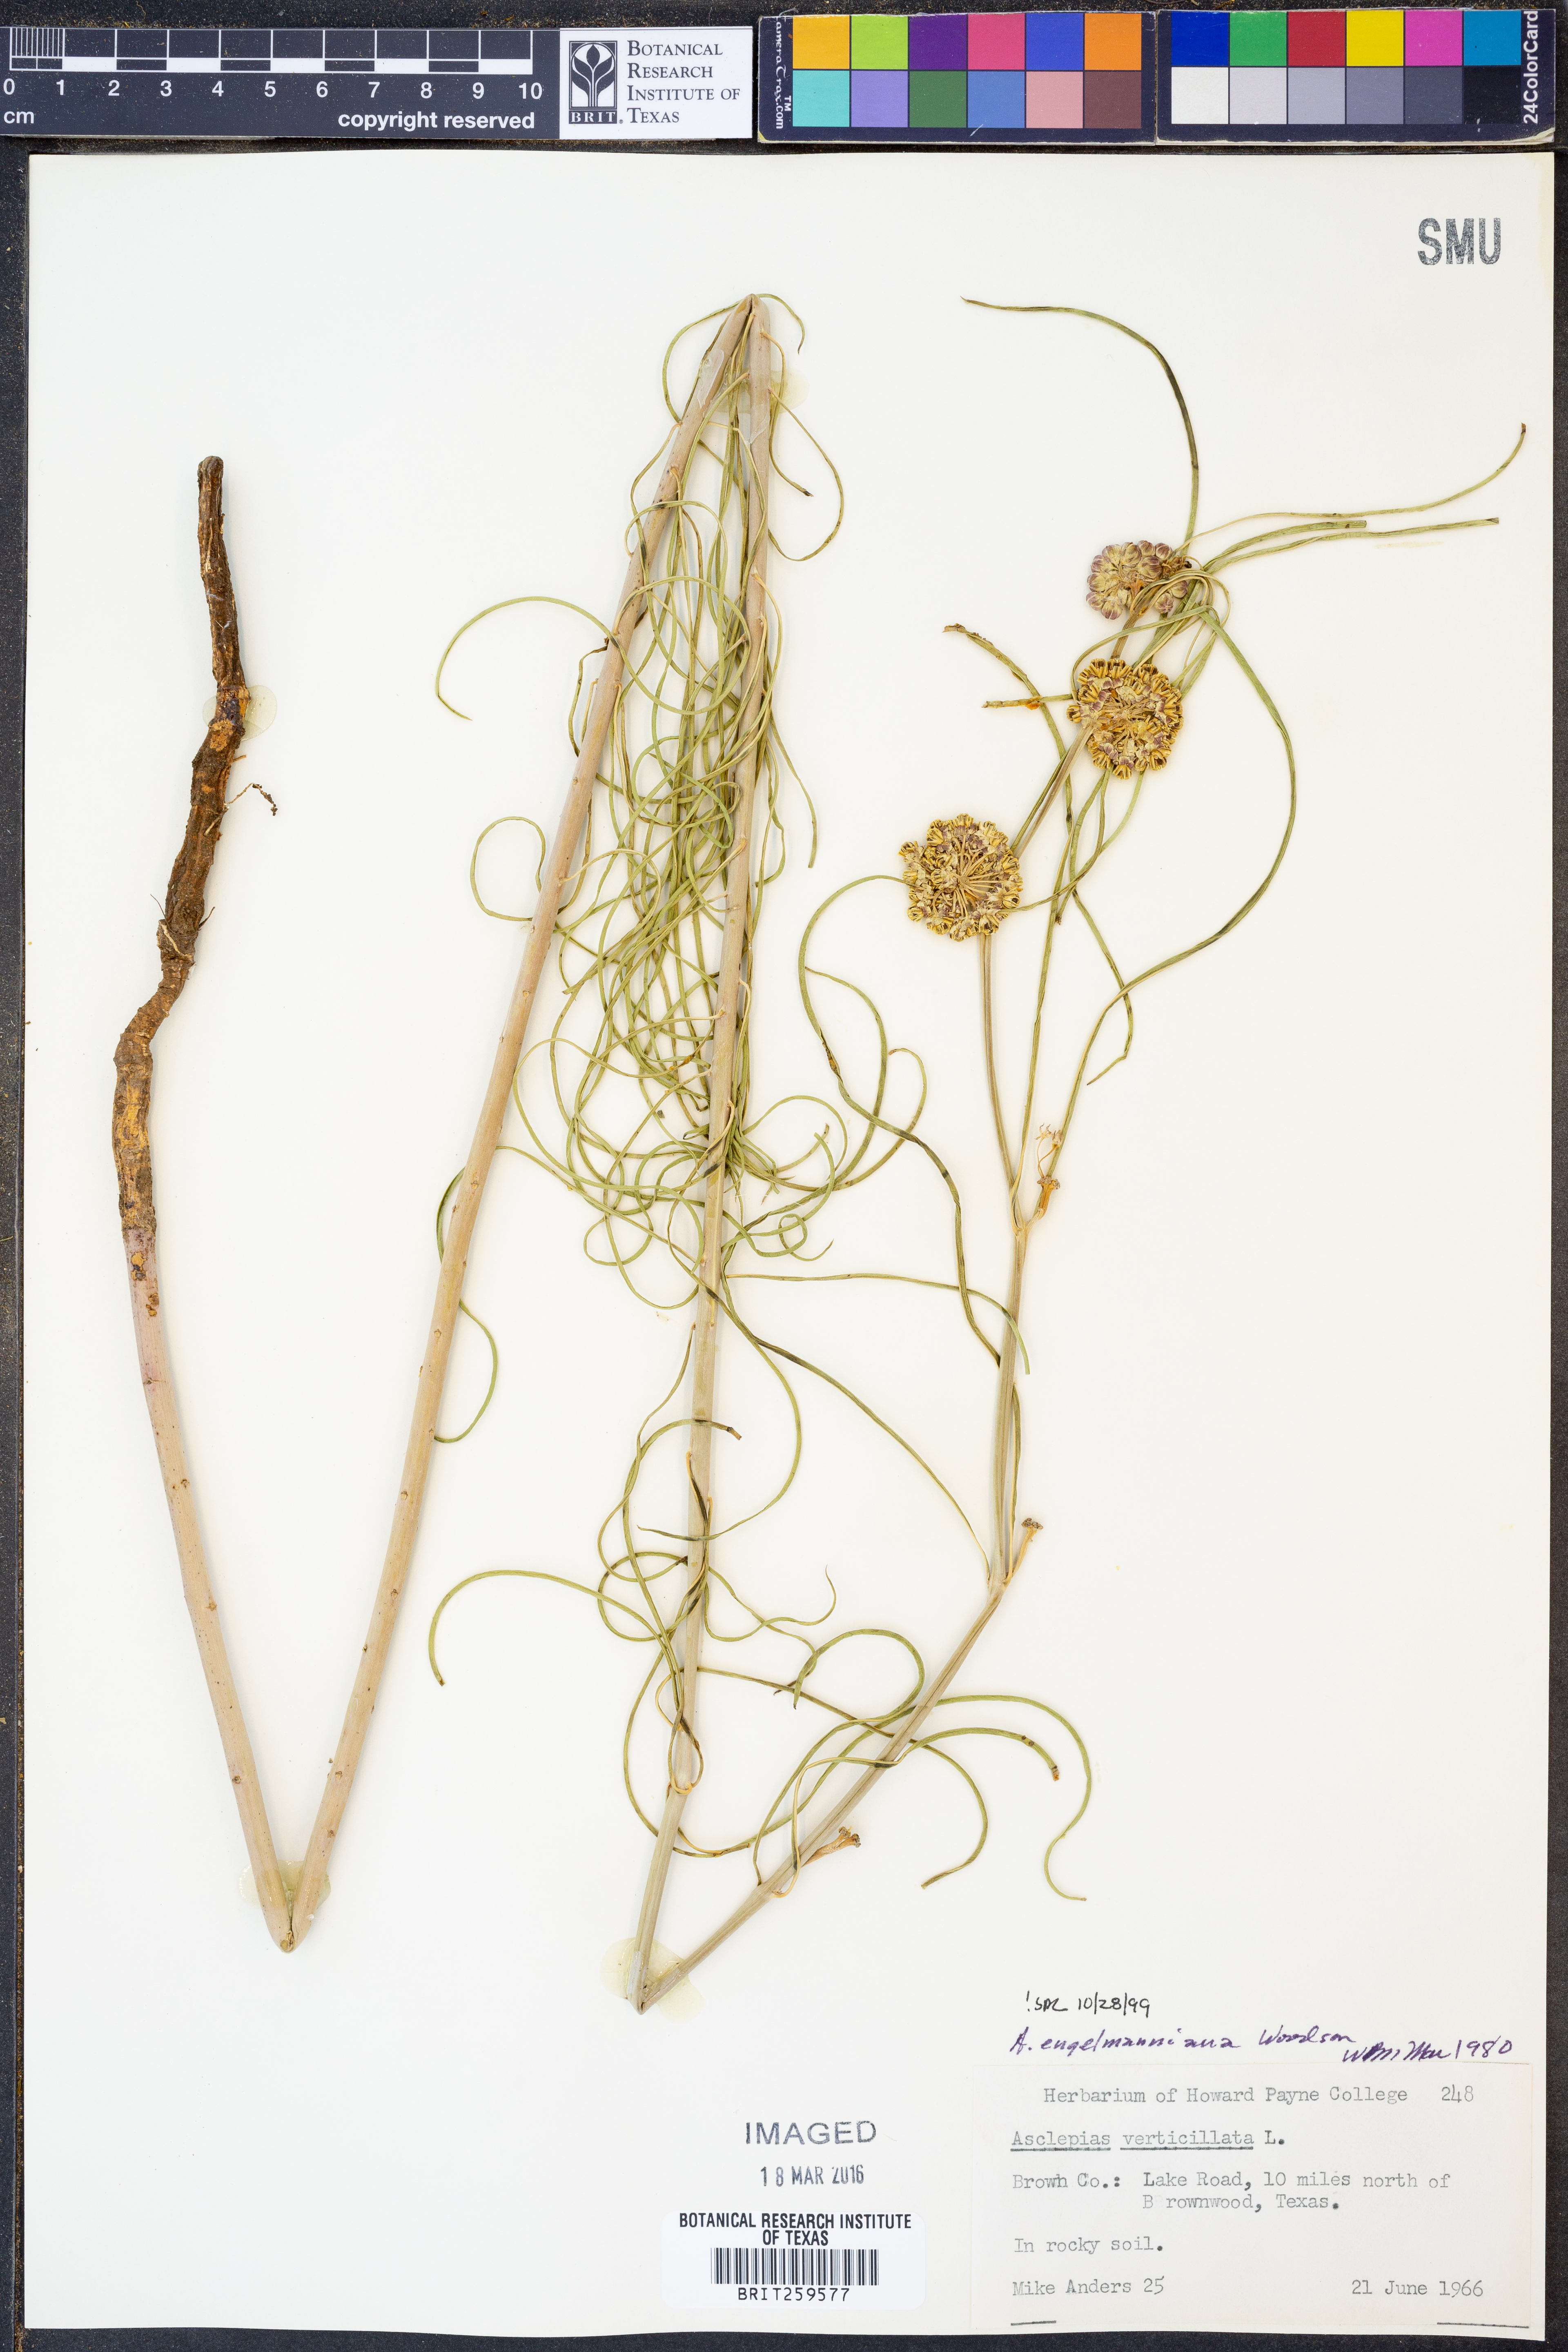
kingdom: Plantae
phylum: Tracheophyta
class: Magnoliopsida
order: Gentianales
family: Apocynaceae
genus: Asclepias
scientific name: Asclepias engelmanniana
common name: Engelmann's milkweed
